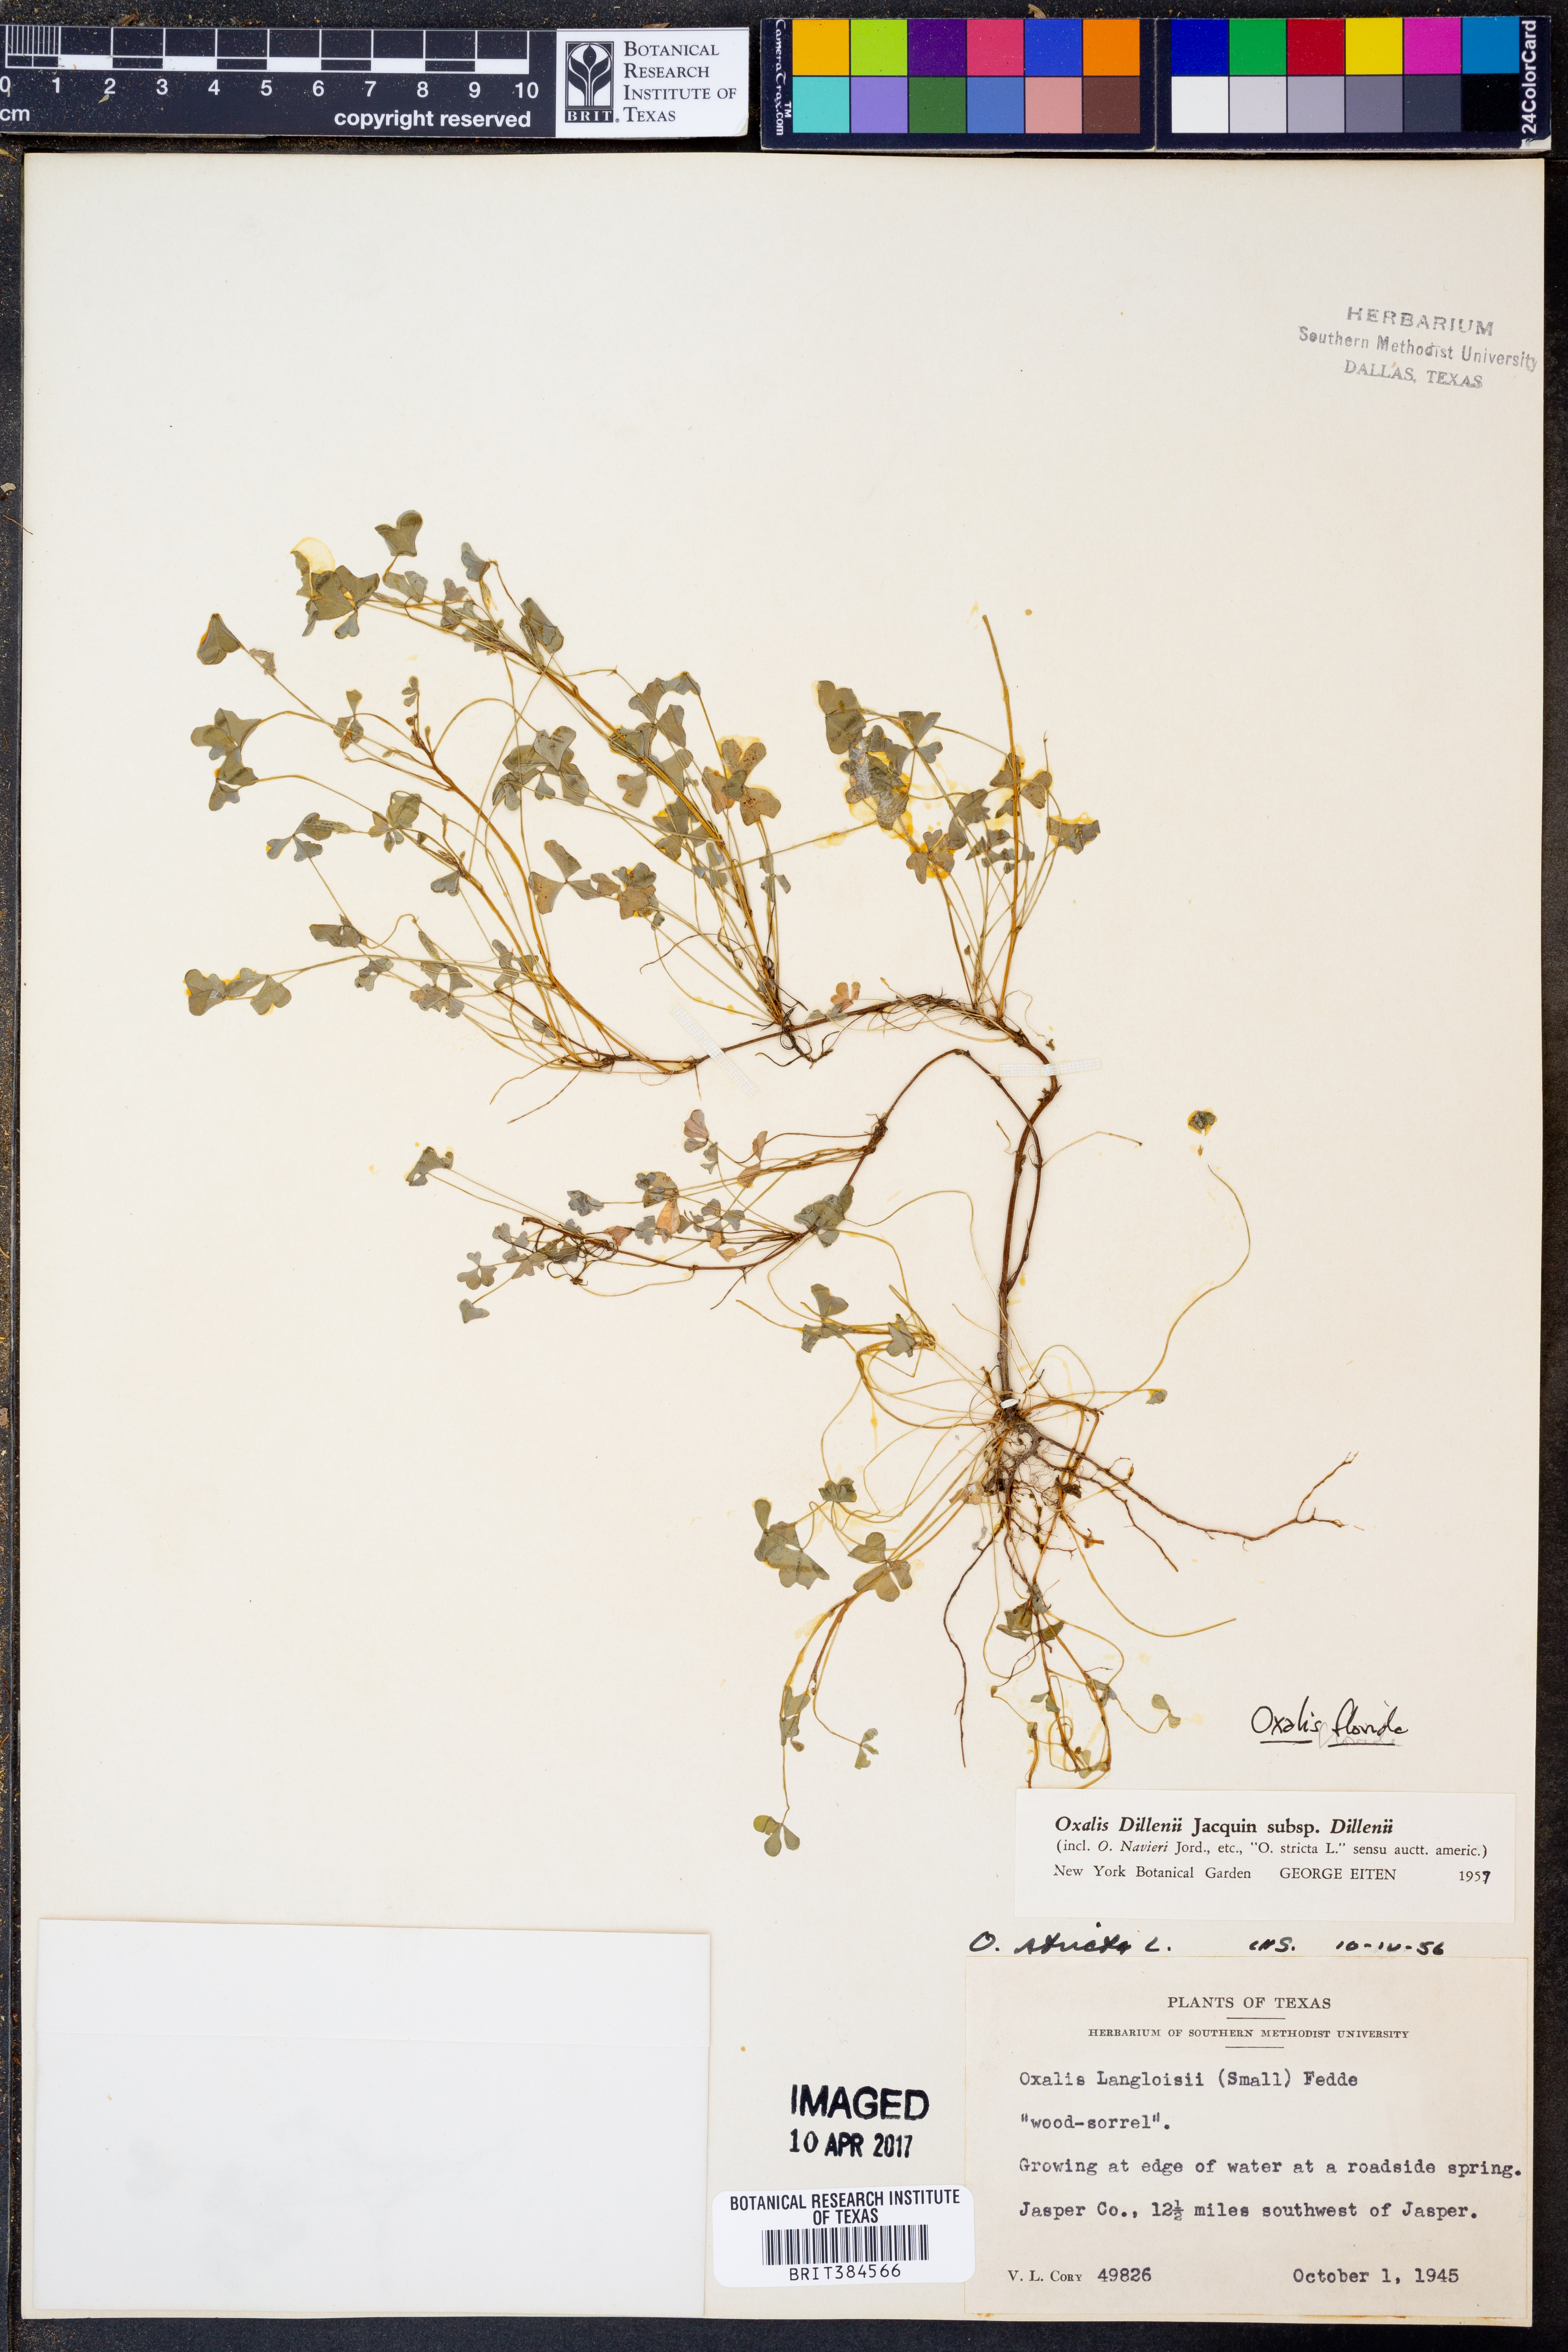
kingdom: Plantae
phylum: Tracheophyta
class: Magnoliopsida
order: Oxalidales
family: Oxalidaceae
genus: Oxalis
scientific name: Oxalis florida
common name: Flowering yellow woodsorrel
